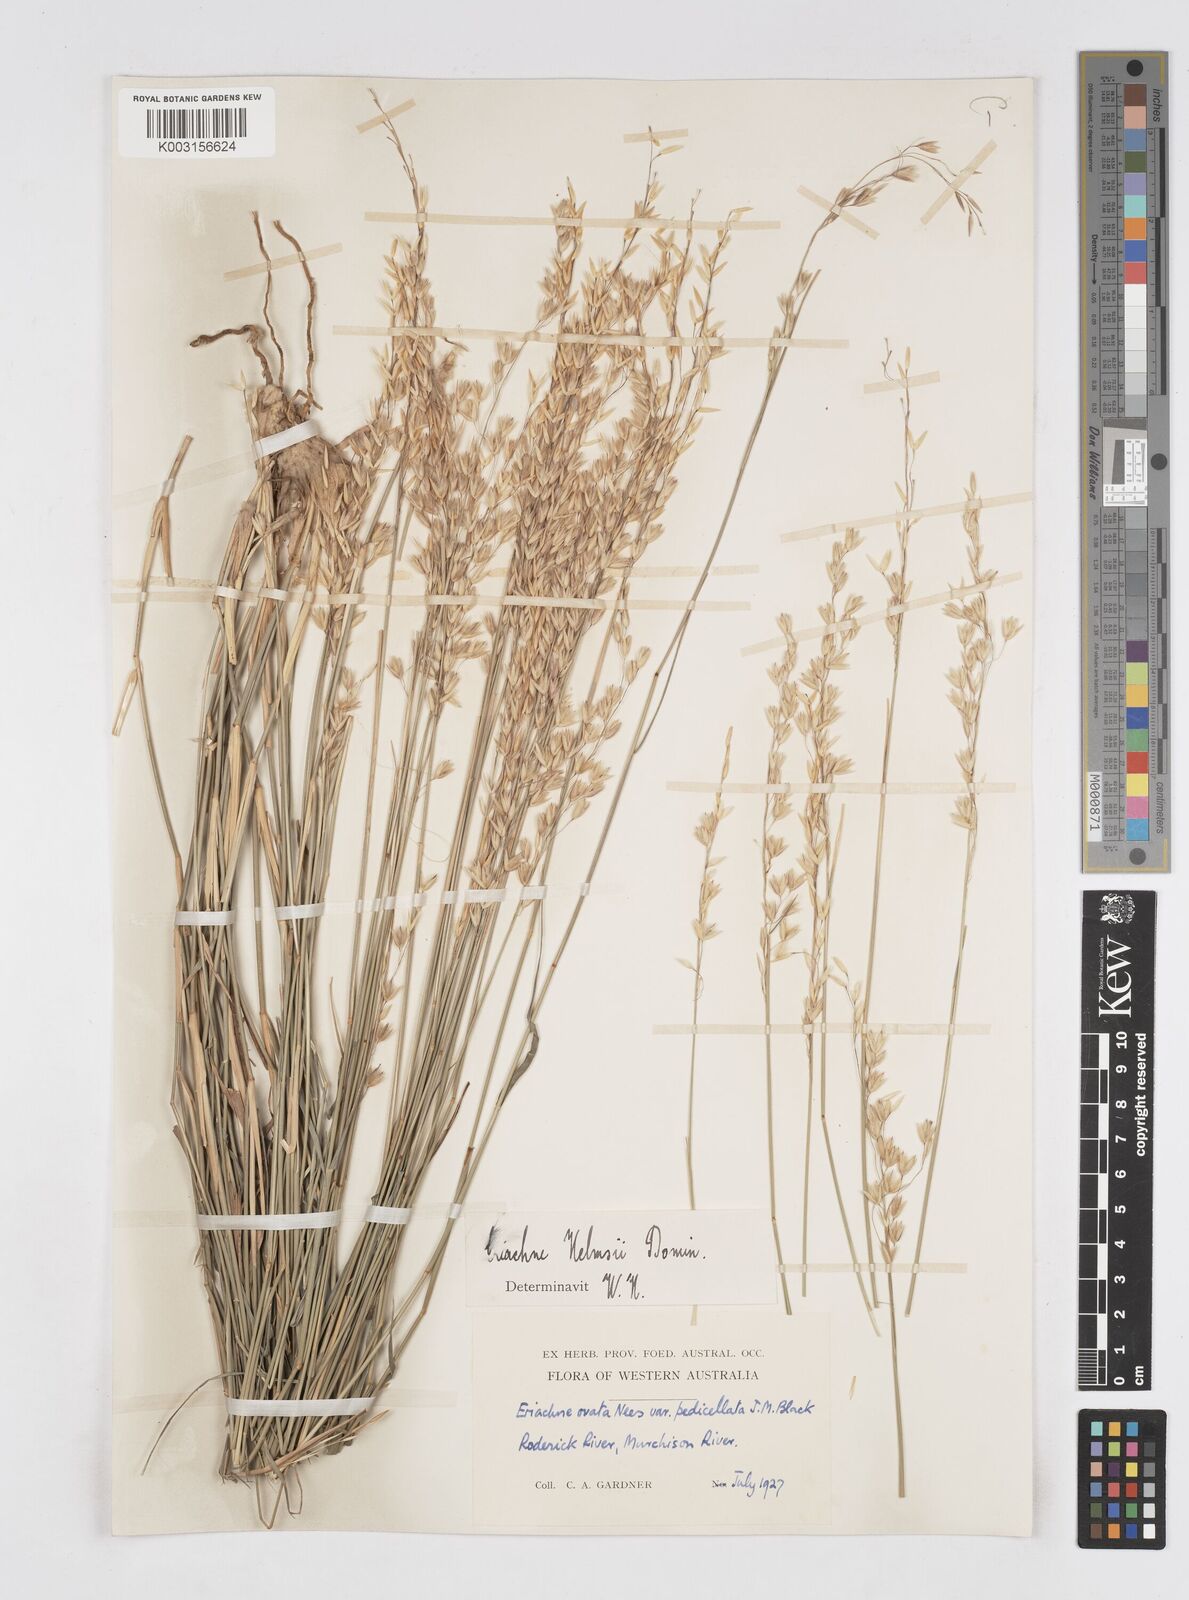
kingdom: Plantae
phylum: Tracheophyta
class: Liliopsida
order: Poales
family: Poaceae
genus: Eriachne
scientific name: Eriachne helmsii
